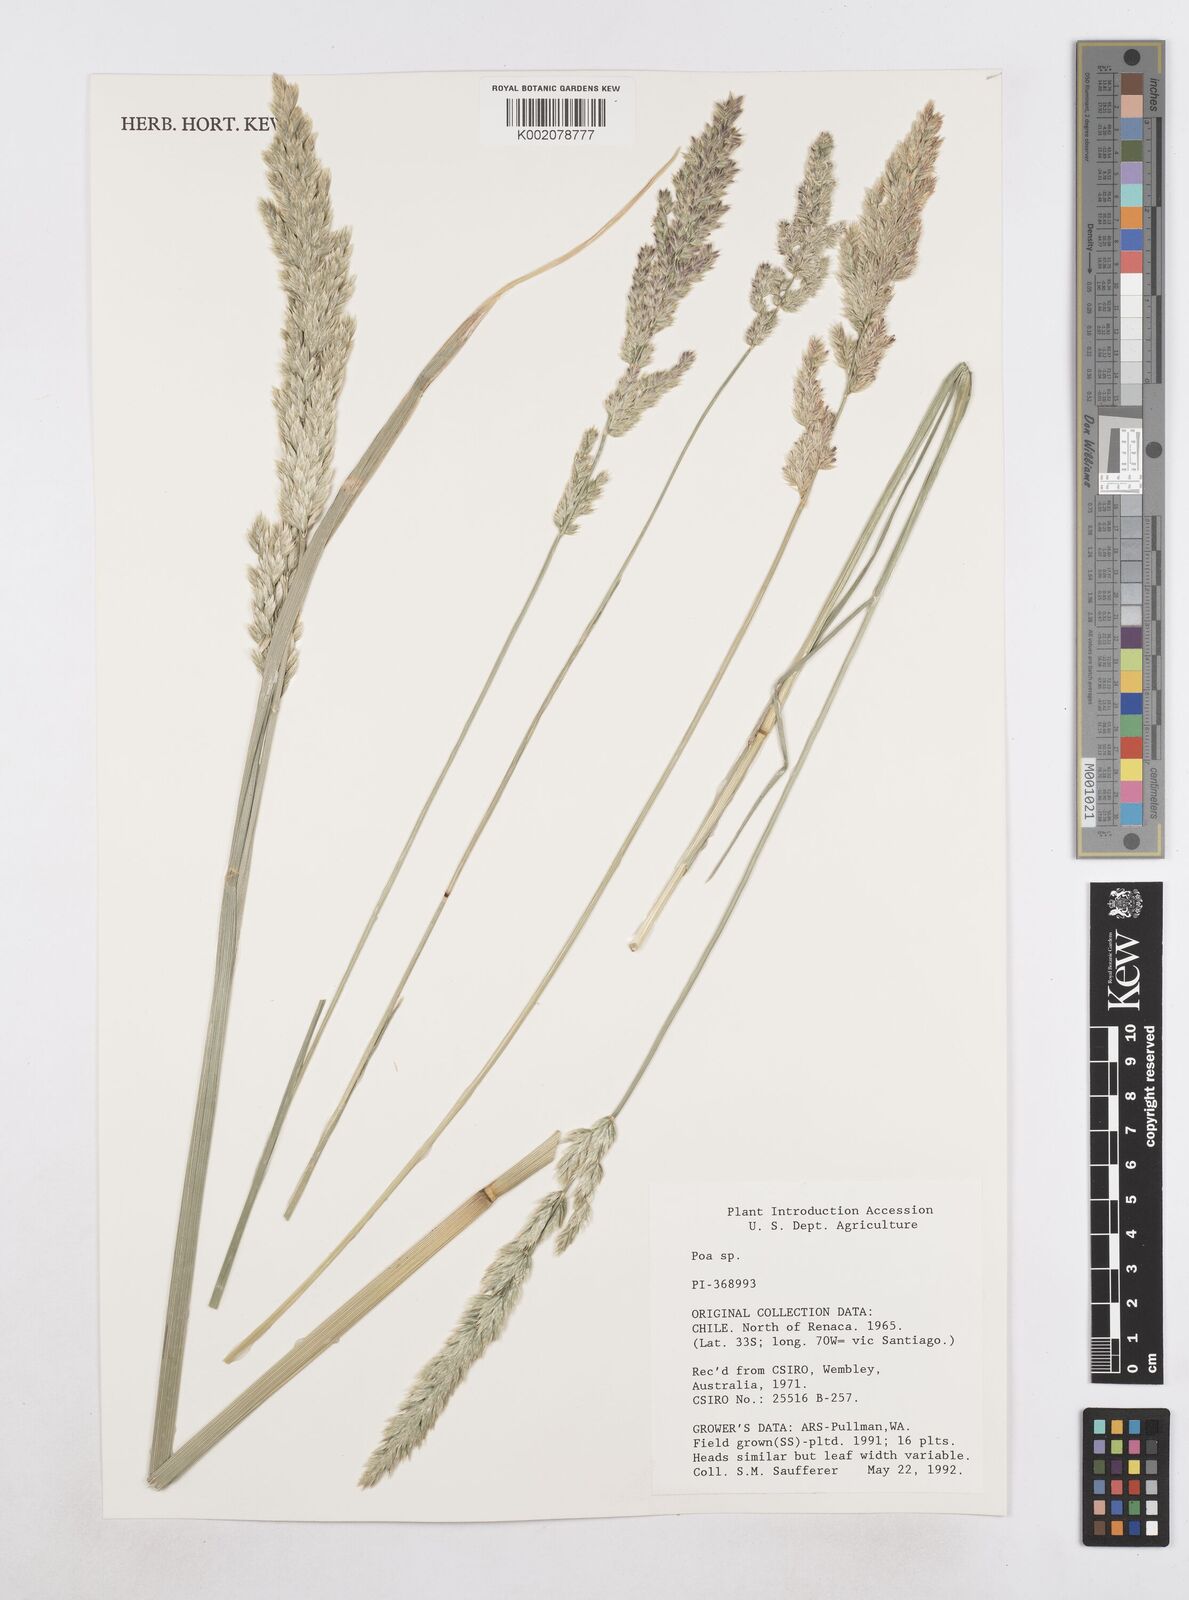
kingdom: Plantae
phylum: Tracheophyta
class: Liliopsida
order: Poales
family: Poaceae
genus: Poa
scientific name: Poa
